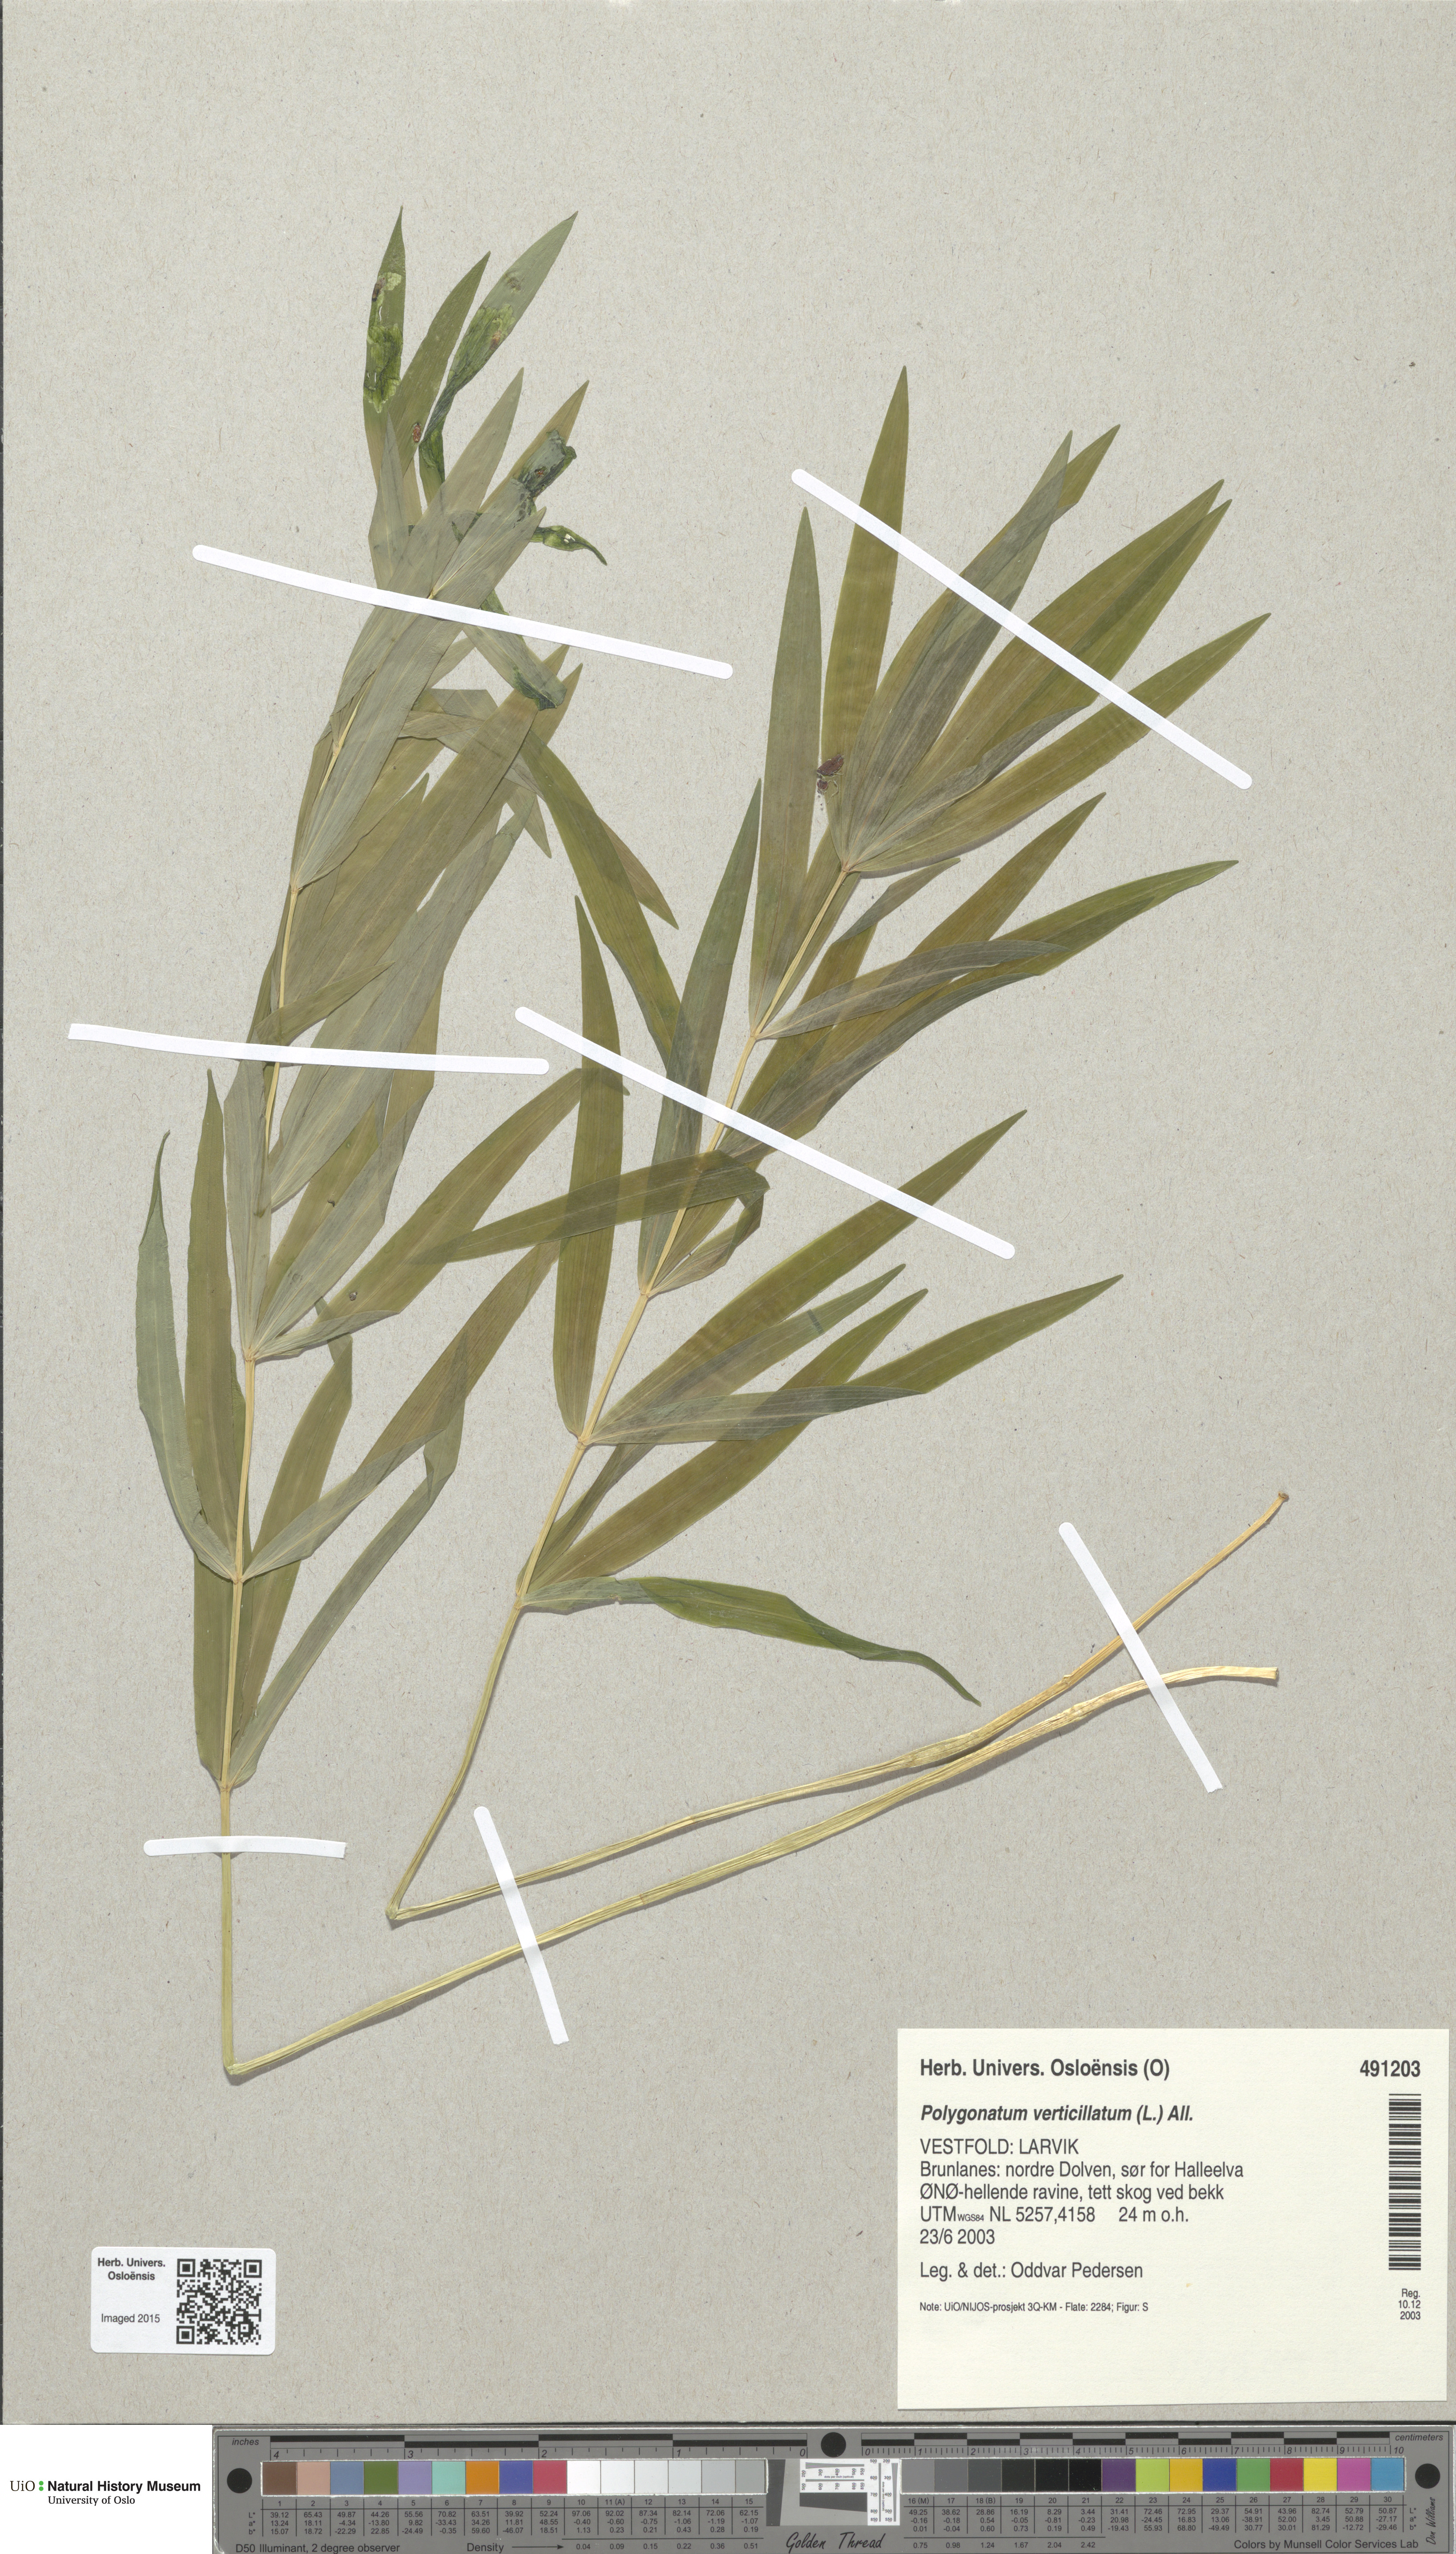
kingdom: Plantae
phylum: Tracheophyta
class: Liliopsida
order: Asparagales
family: Asparagaceae
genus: Polygonatum
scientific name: Polygonatum verticillatum
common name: Whorled solomon's-seal
